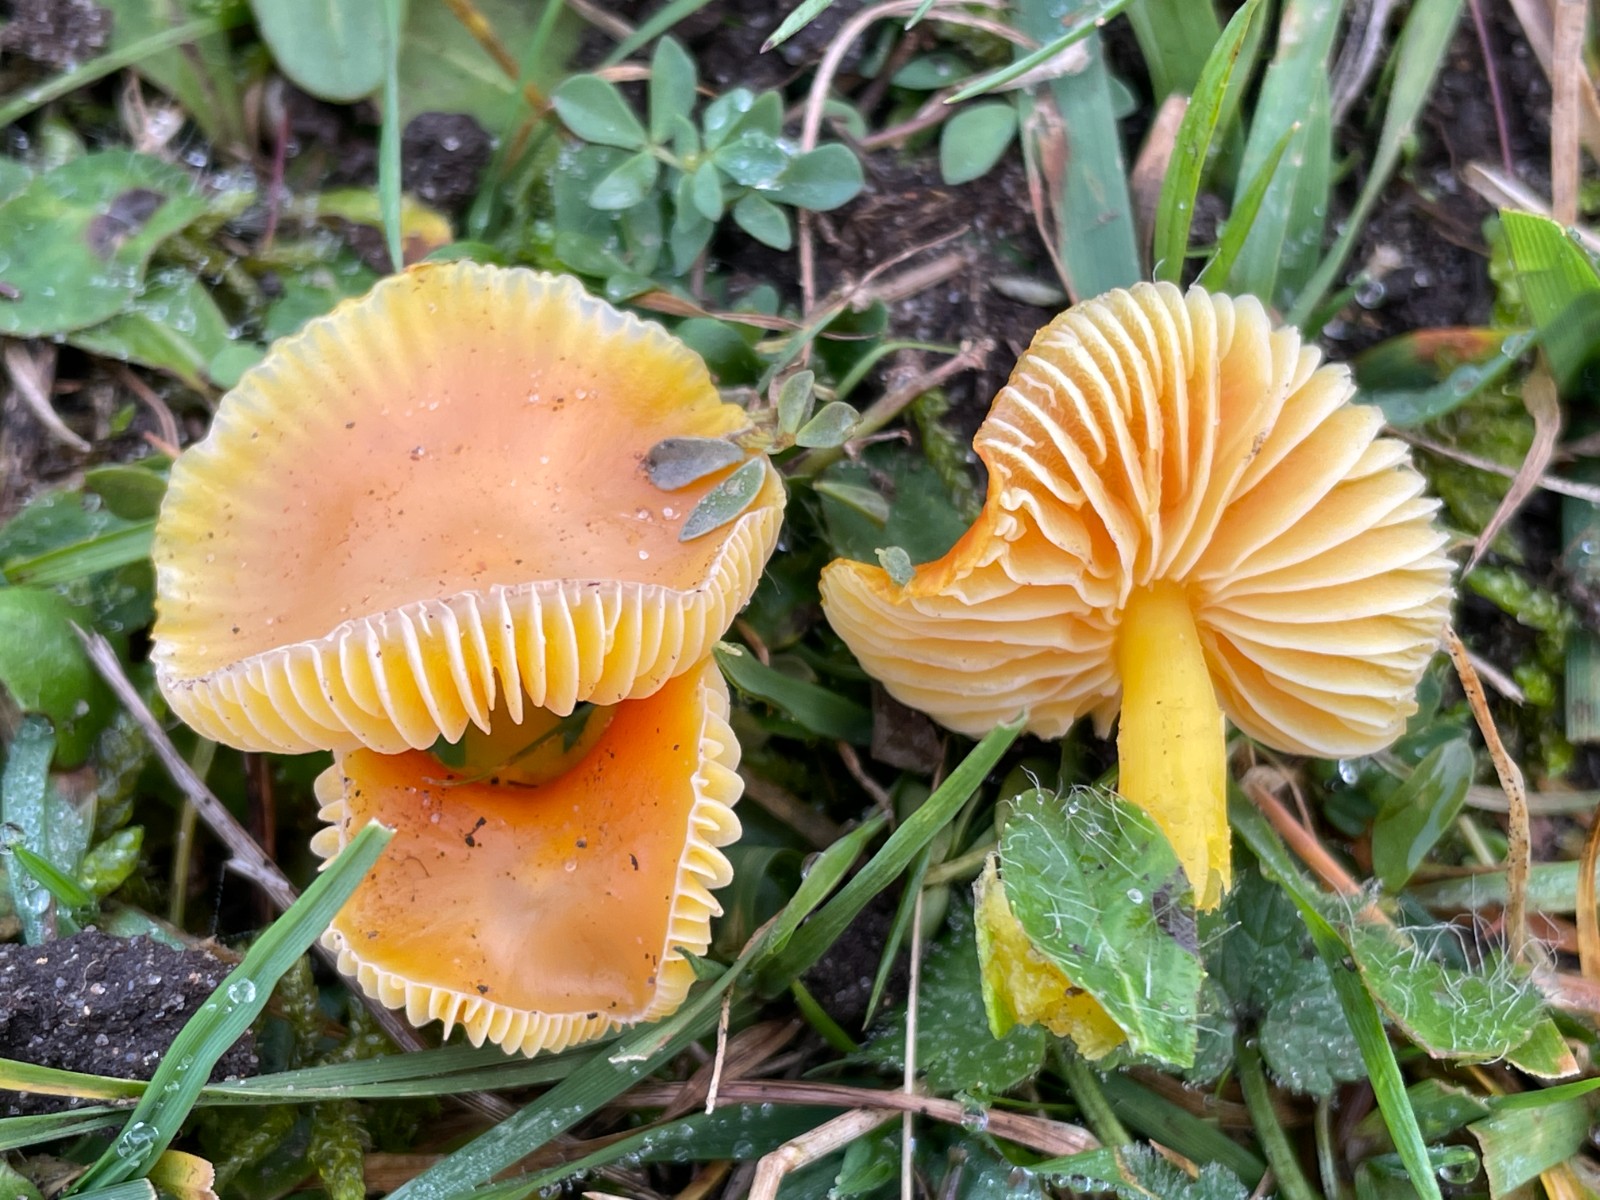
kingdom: Fungi
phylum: Basidiomycota
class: Agaricomycetes
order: Agaricales
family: Hygrophoraceae
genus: Hygrocybe
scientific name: Hygrocybe chlorophana
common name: gul vokshat
